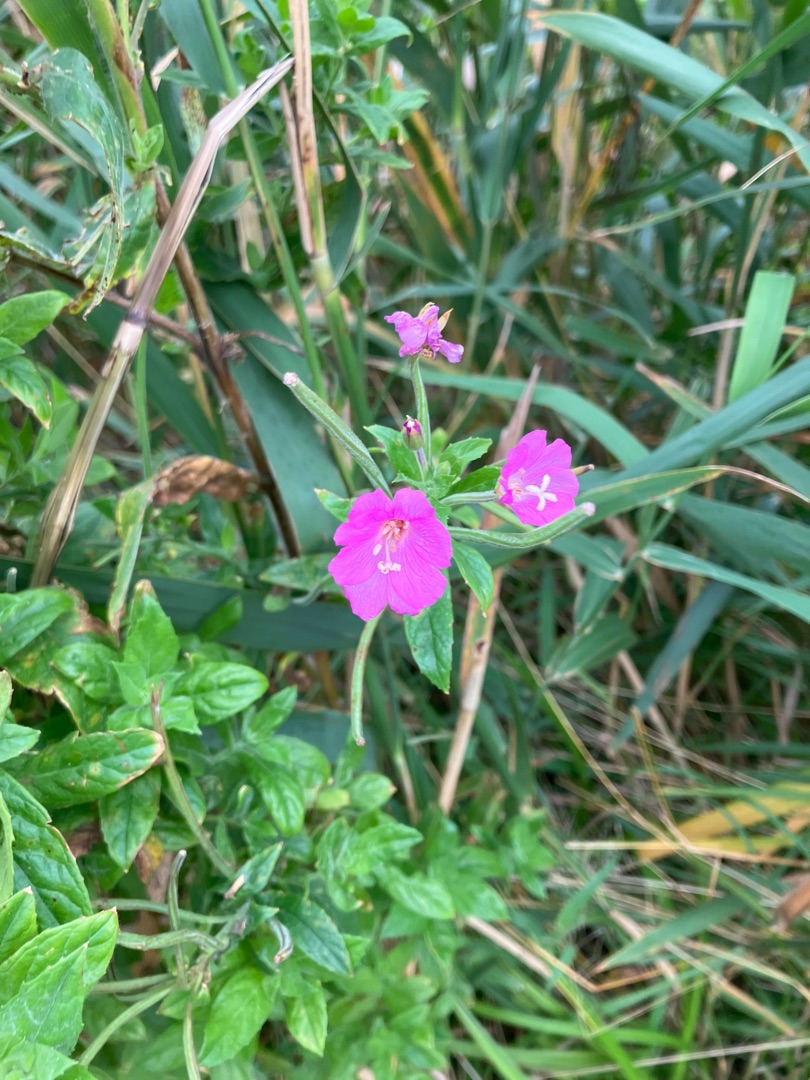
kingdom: Plantae
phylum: Tracheophyta
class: Magnoliopsida
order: Myrtales
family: Onagraceae
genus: Epilobium
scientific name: Epilobium hirsutum
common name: Lådden dueurt
